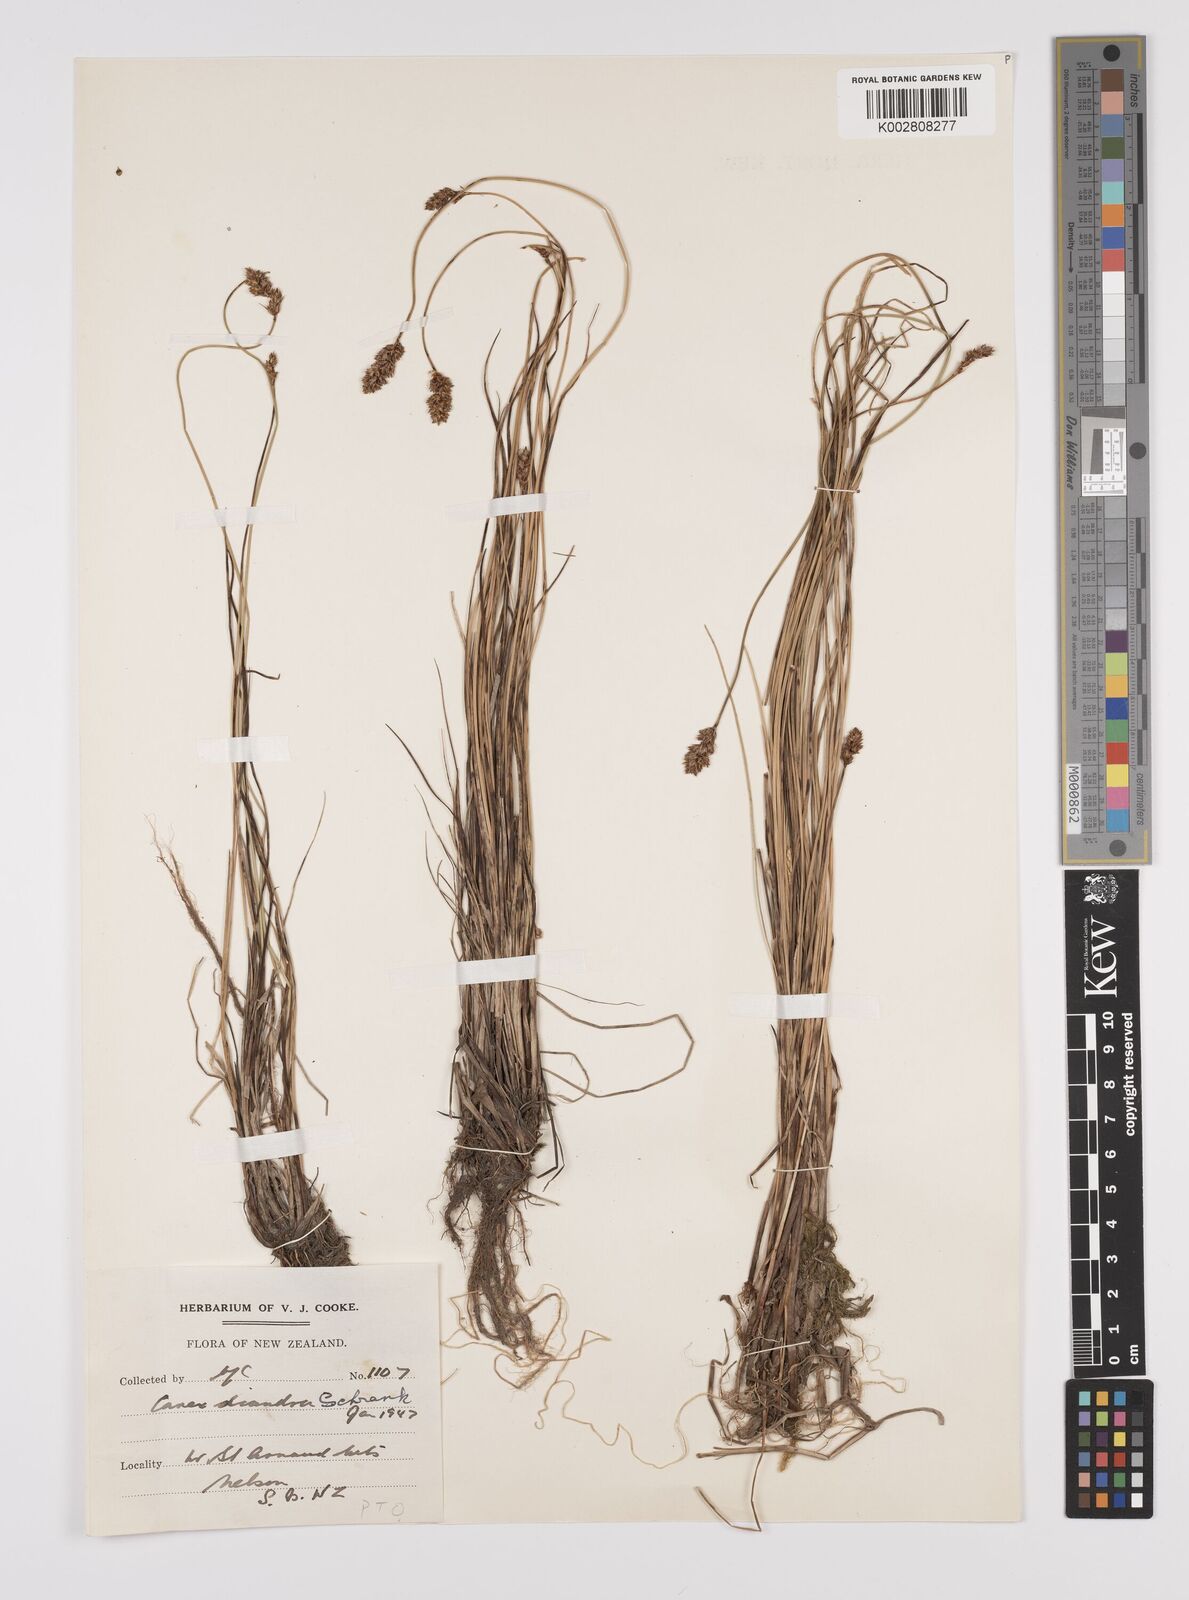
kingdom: Plantae
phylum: Tracheophyta
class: Liliopsida
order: Poales
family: Cyperaceae
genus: Carex
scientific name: Carex diandra
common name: Lesser tussock-sedge
